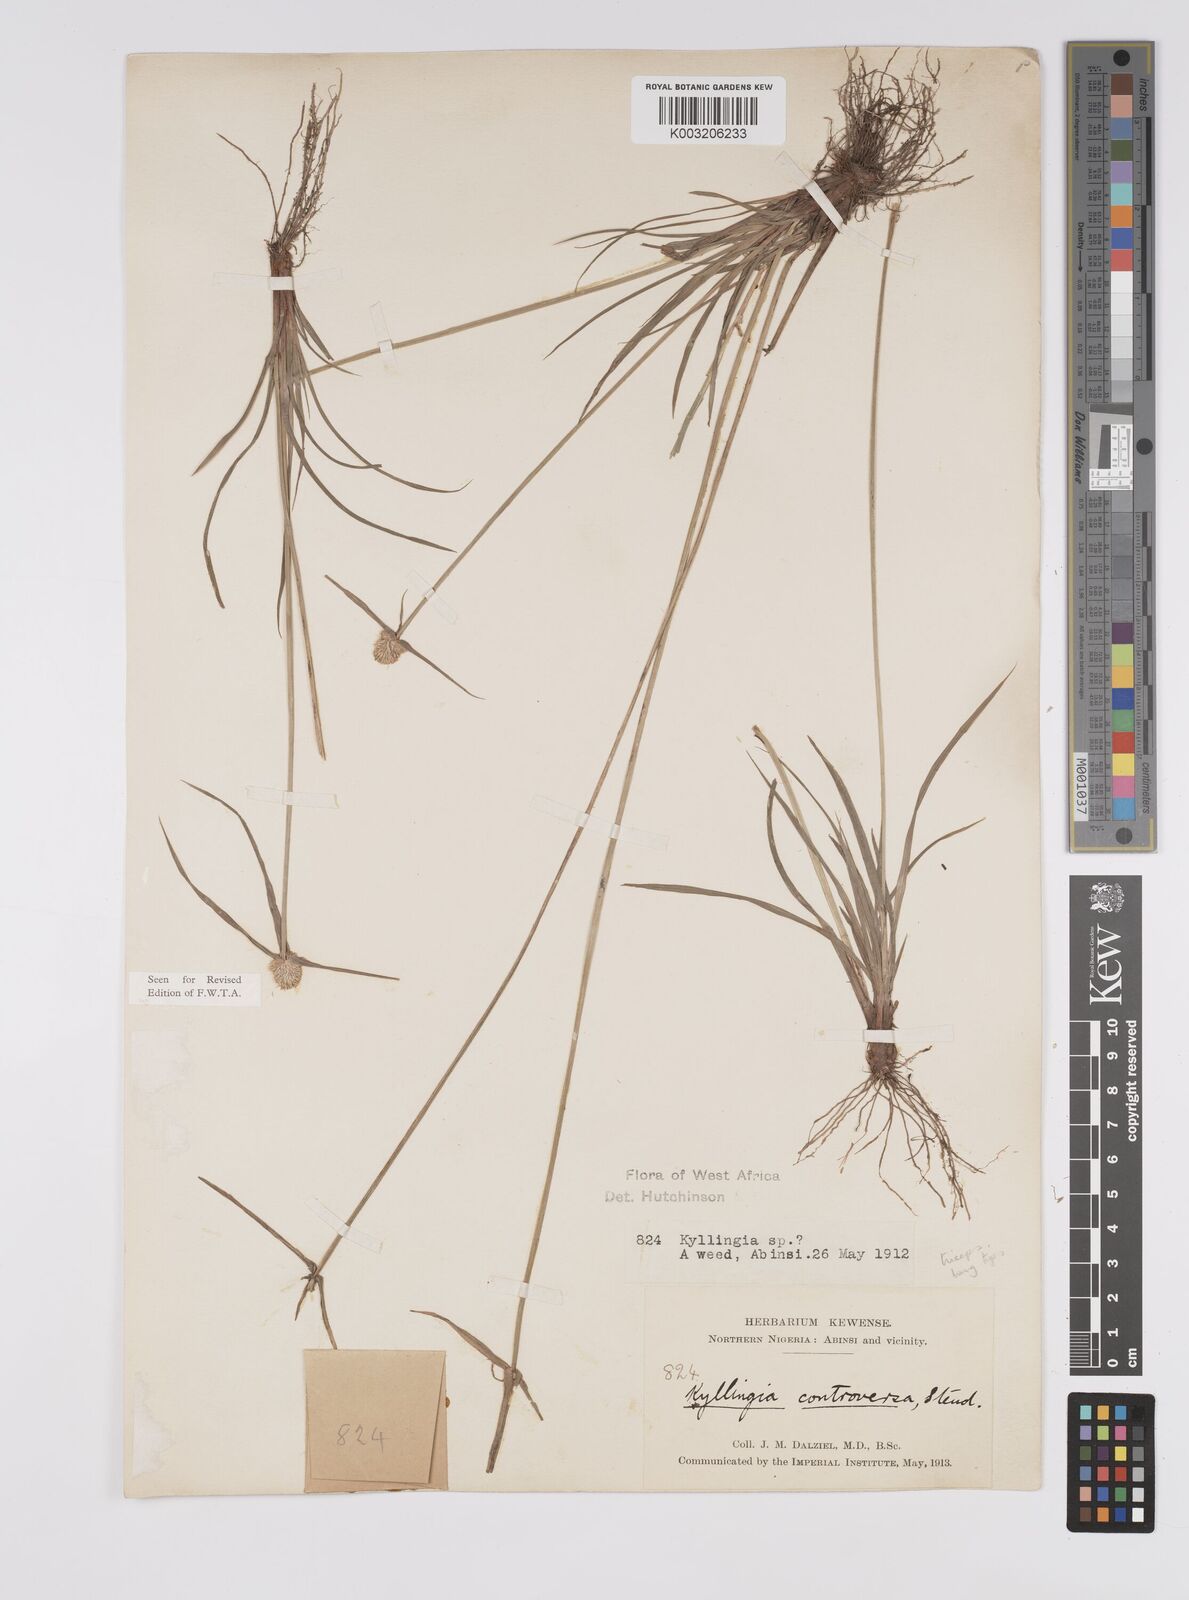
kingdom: Plantae
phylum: Tracheophyta
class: Liliopsida
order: Poales
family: Cyperaceae
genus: Cyperus
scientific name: Cyperus
